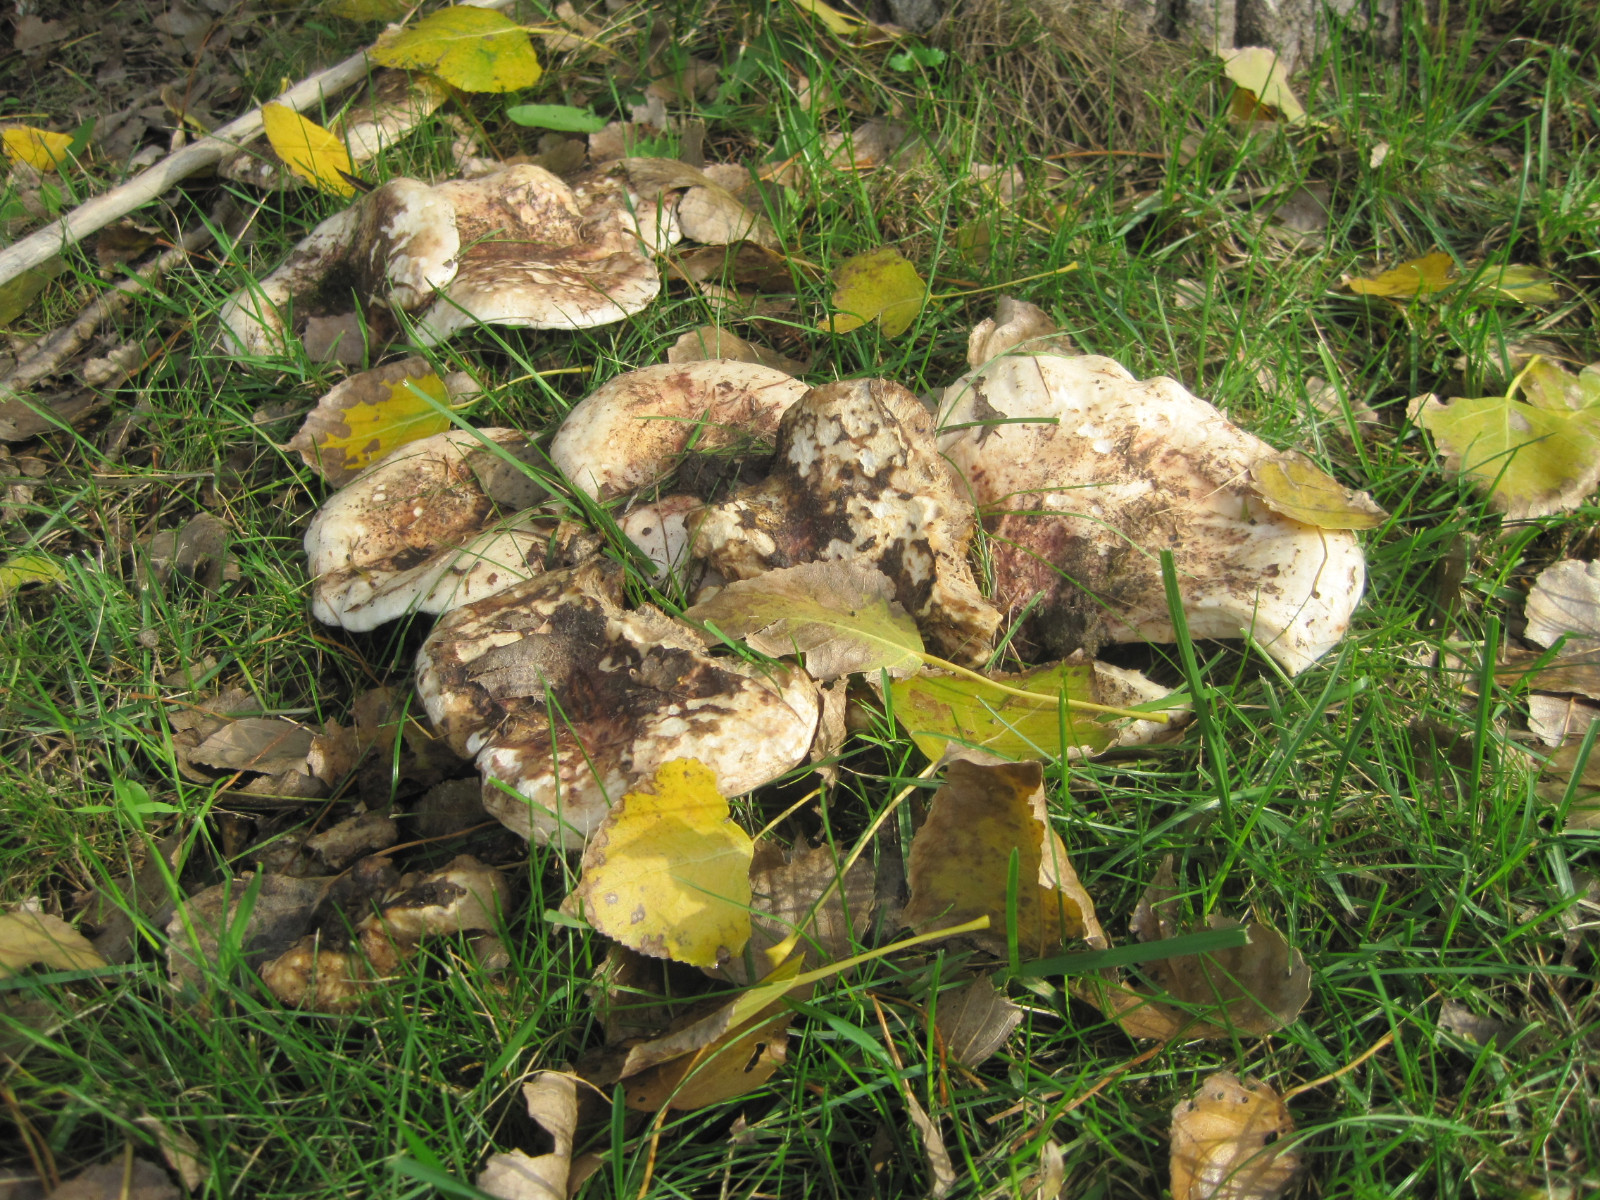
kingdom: Fungi
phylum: Basidiomycota
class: Agaricomycetes
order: Russulales
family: Russulaceae
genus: Lactarius
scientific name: Lactarius controversus
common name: rosabladet mælkehat
